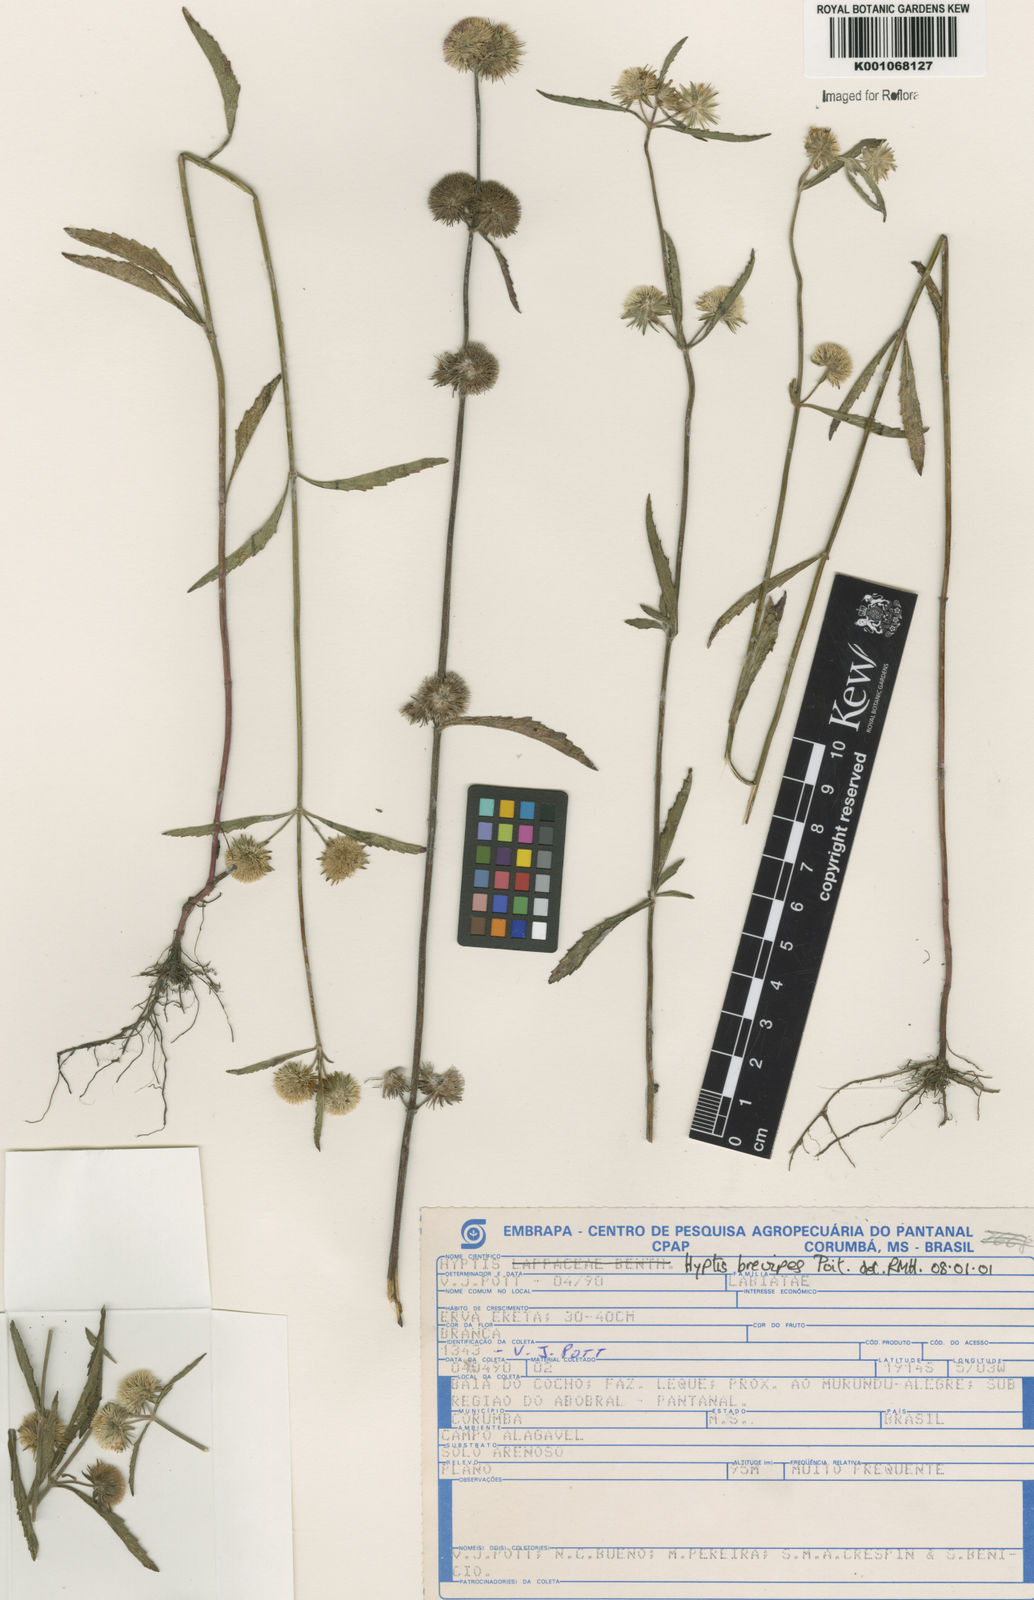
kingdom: Plantae
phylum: Tracheophyta
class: Magnoliopsida
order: Lamiales
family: Lamiaceae
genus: Hyptis
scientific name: Hyptis brevipes
